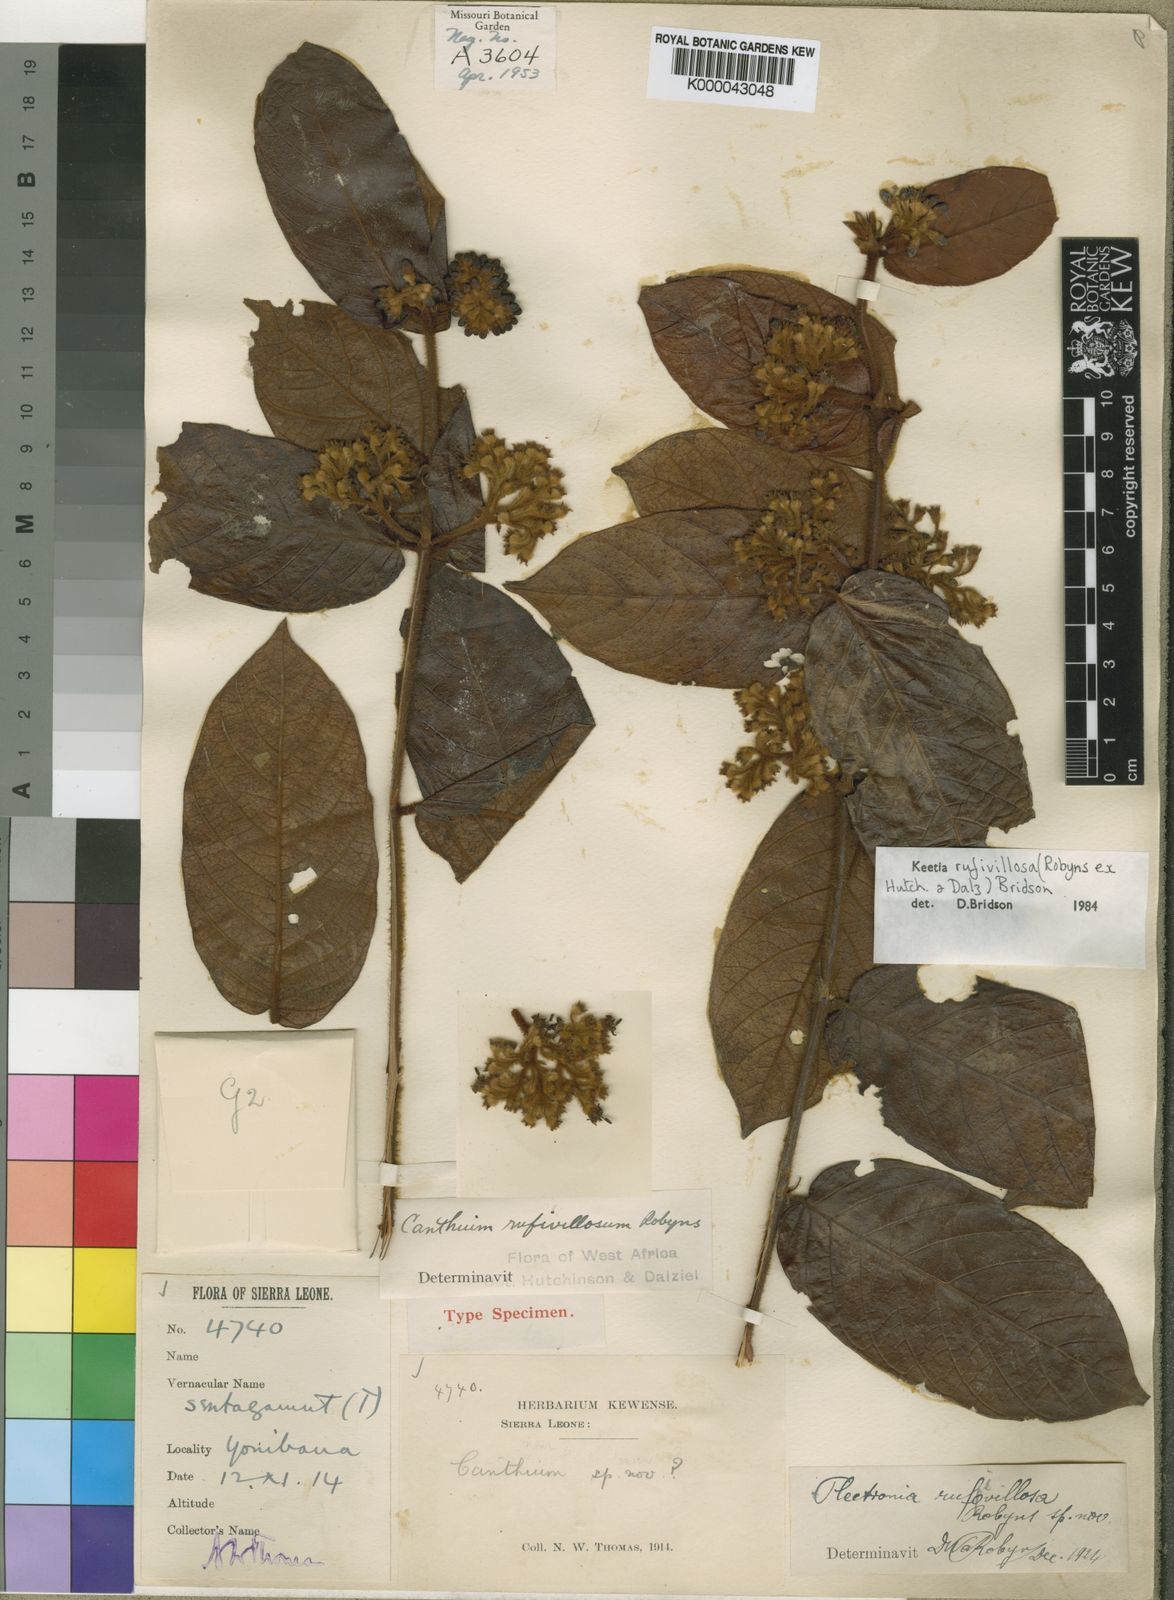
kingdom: Plantae
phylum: Tracheophyta
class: Magnoliopsida
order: Gentianales
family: Rubiaceae
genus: Keetia
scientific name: Keetia rufivillosa
